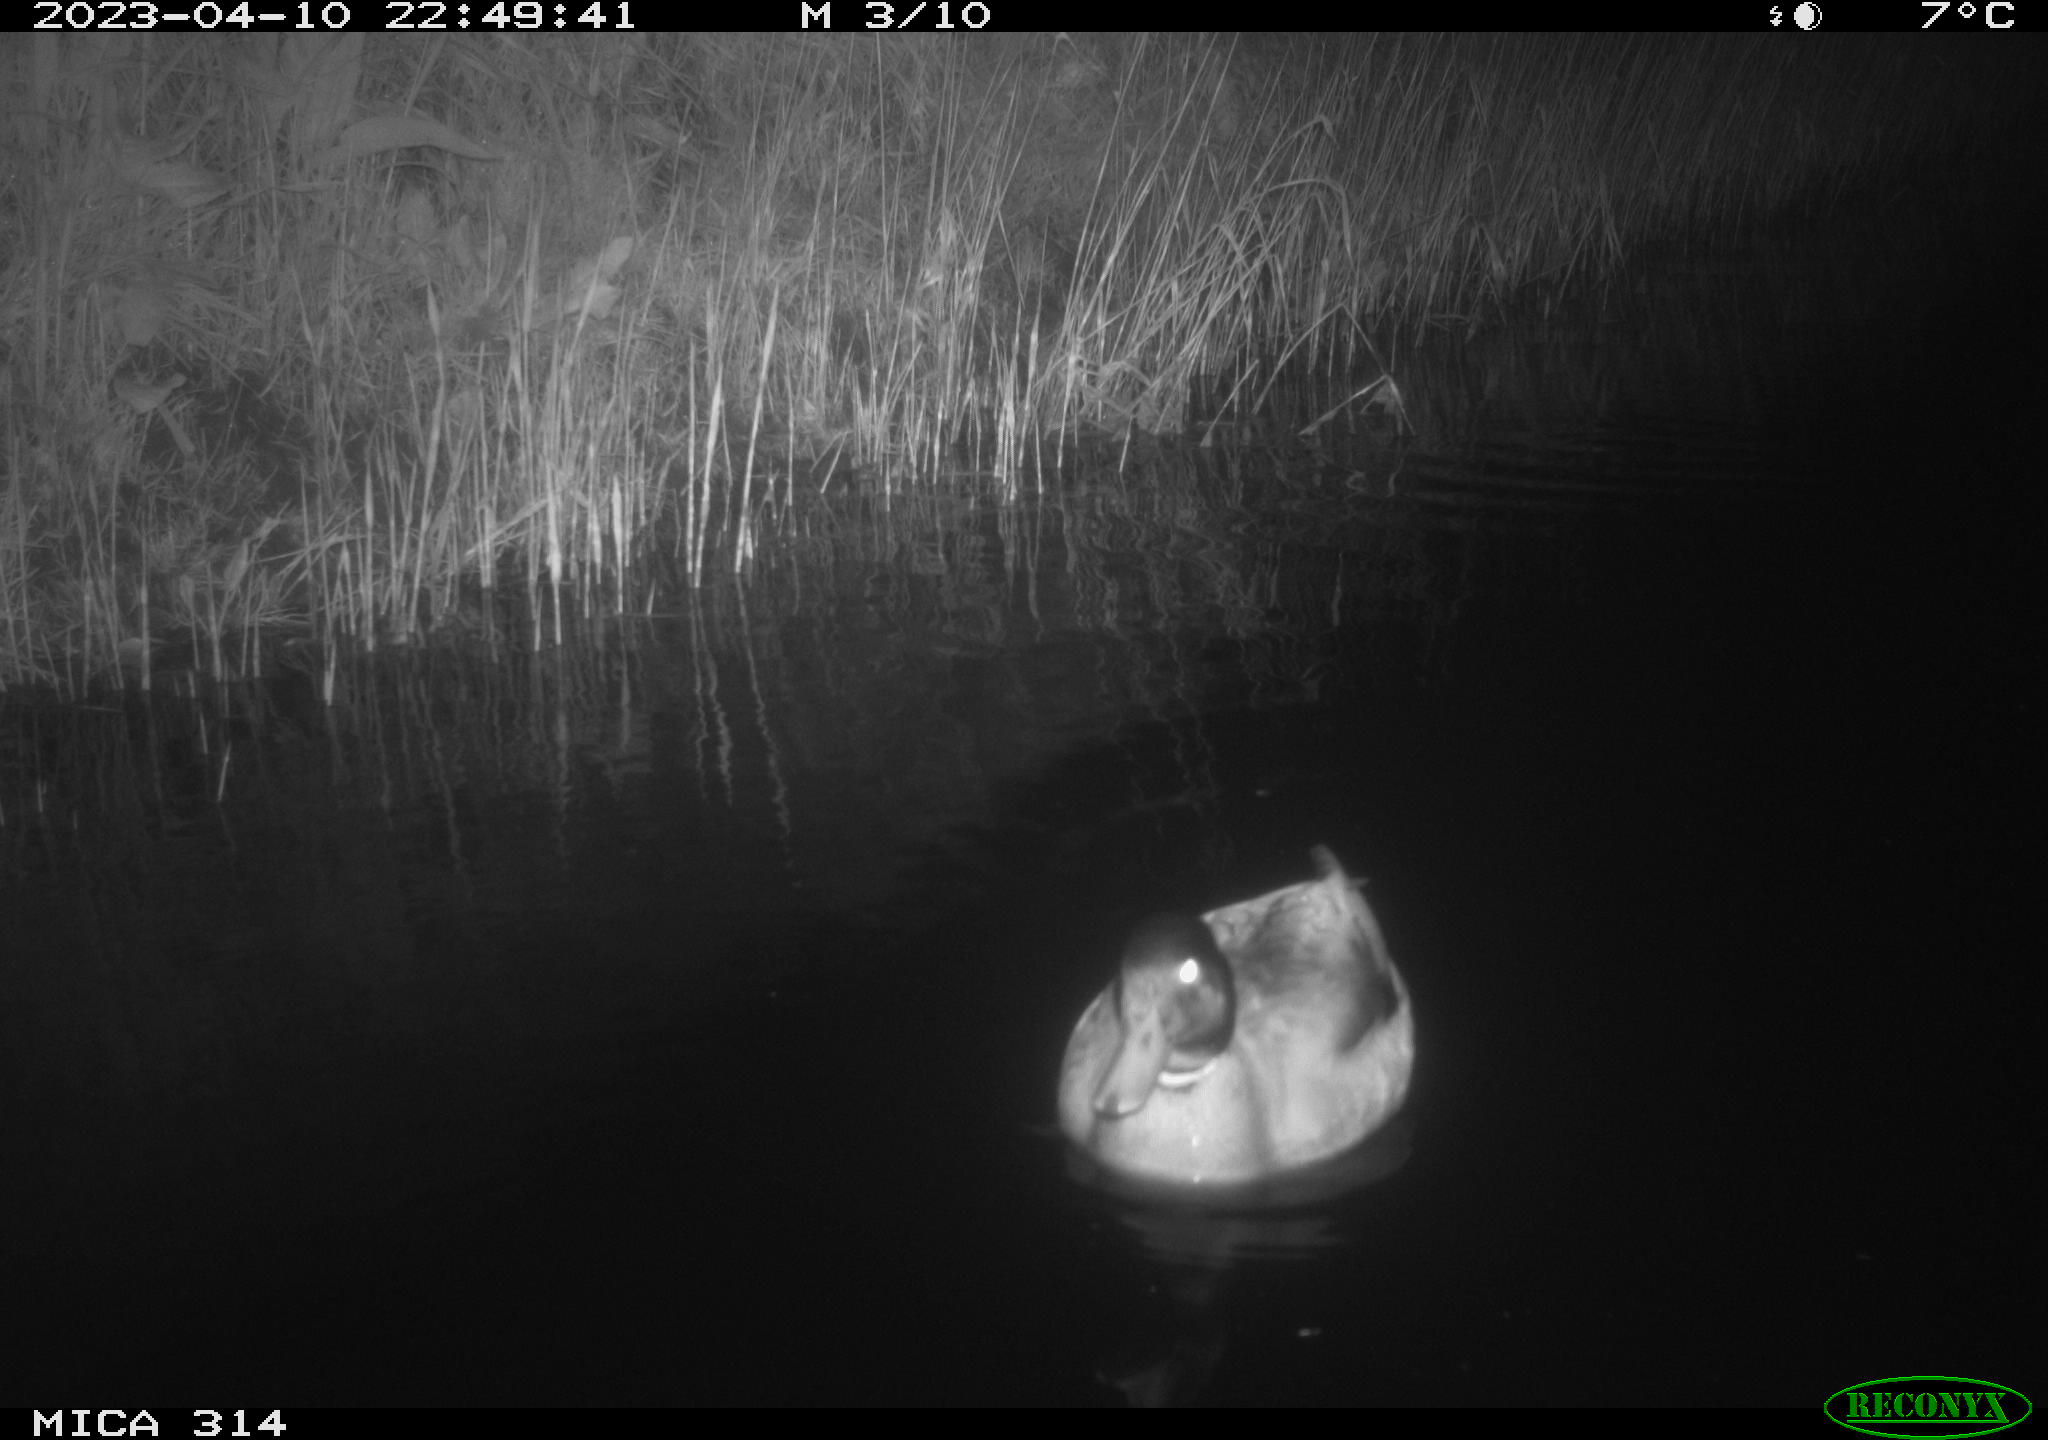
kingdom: Animalia
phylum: Chordata
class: Aves
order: Anseriformes
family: Anatidae
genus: Anas
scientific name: Anas
